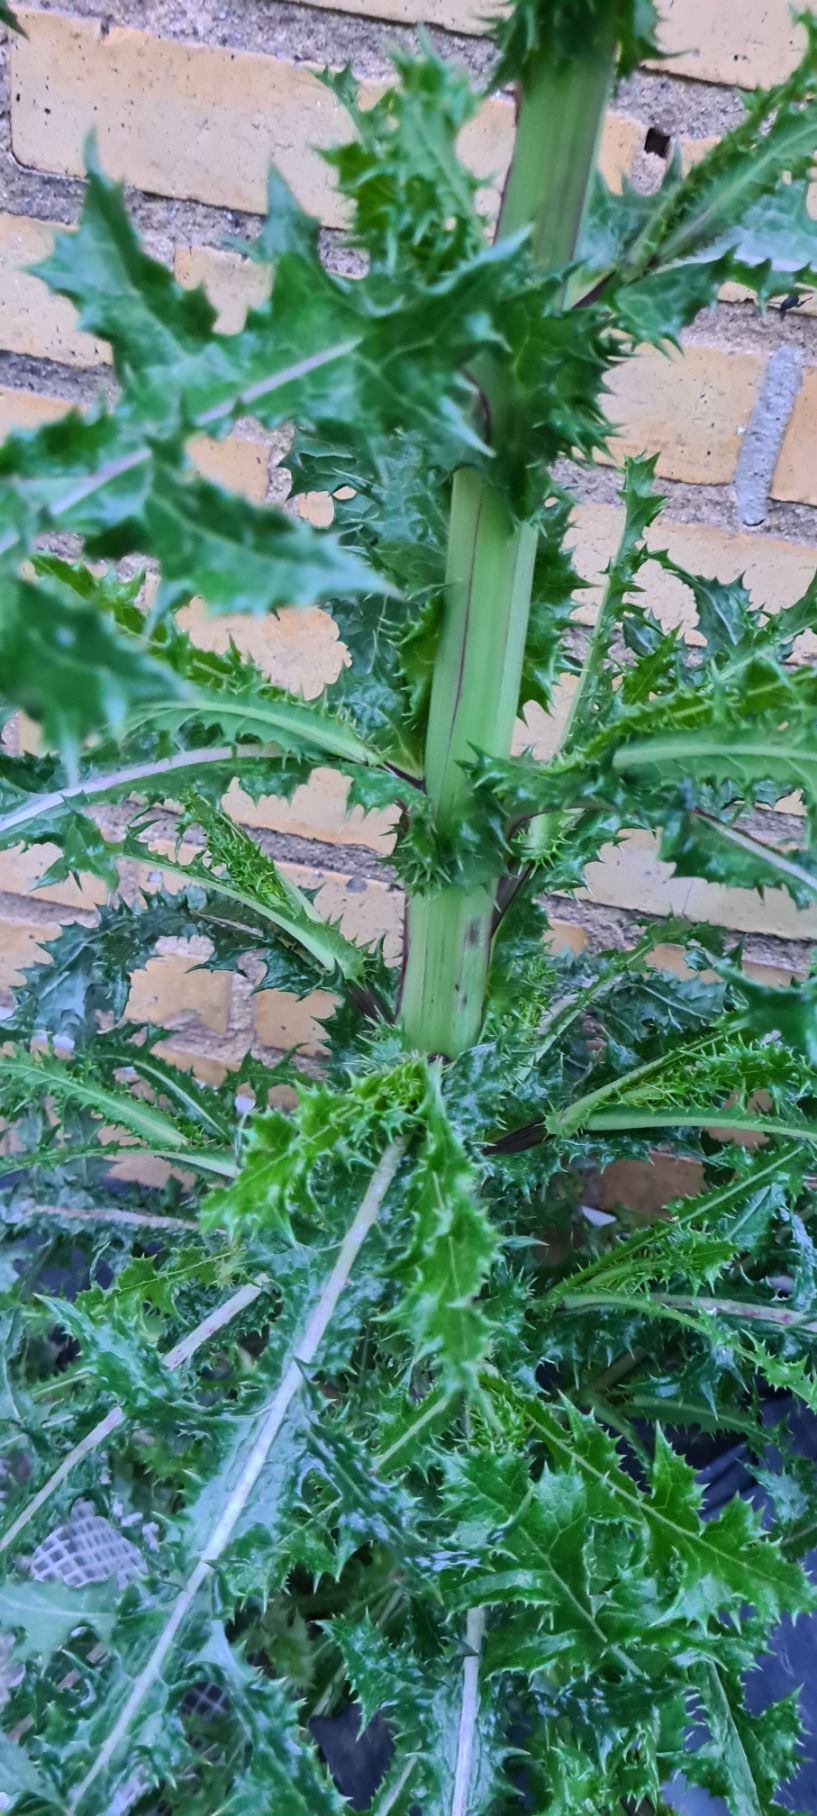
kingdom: Plantae
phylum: Tracheophyta
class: Magnoliopsida
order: Asterales
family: Asteraceae
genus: Sonchus
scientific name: Sonchus asper
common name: Ru svinemælk
